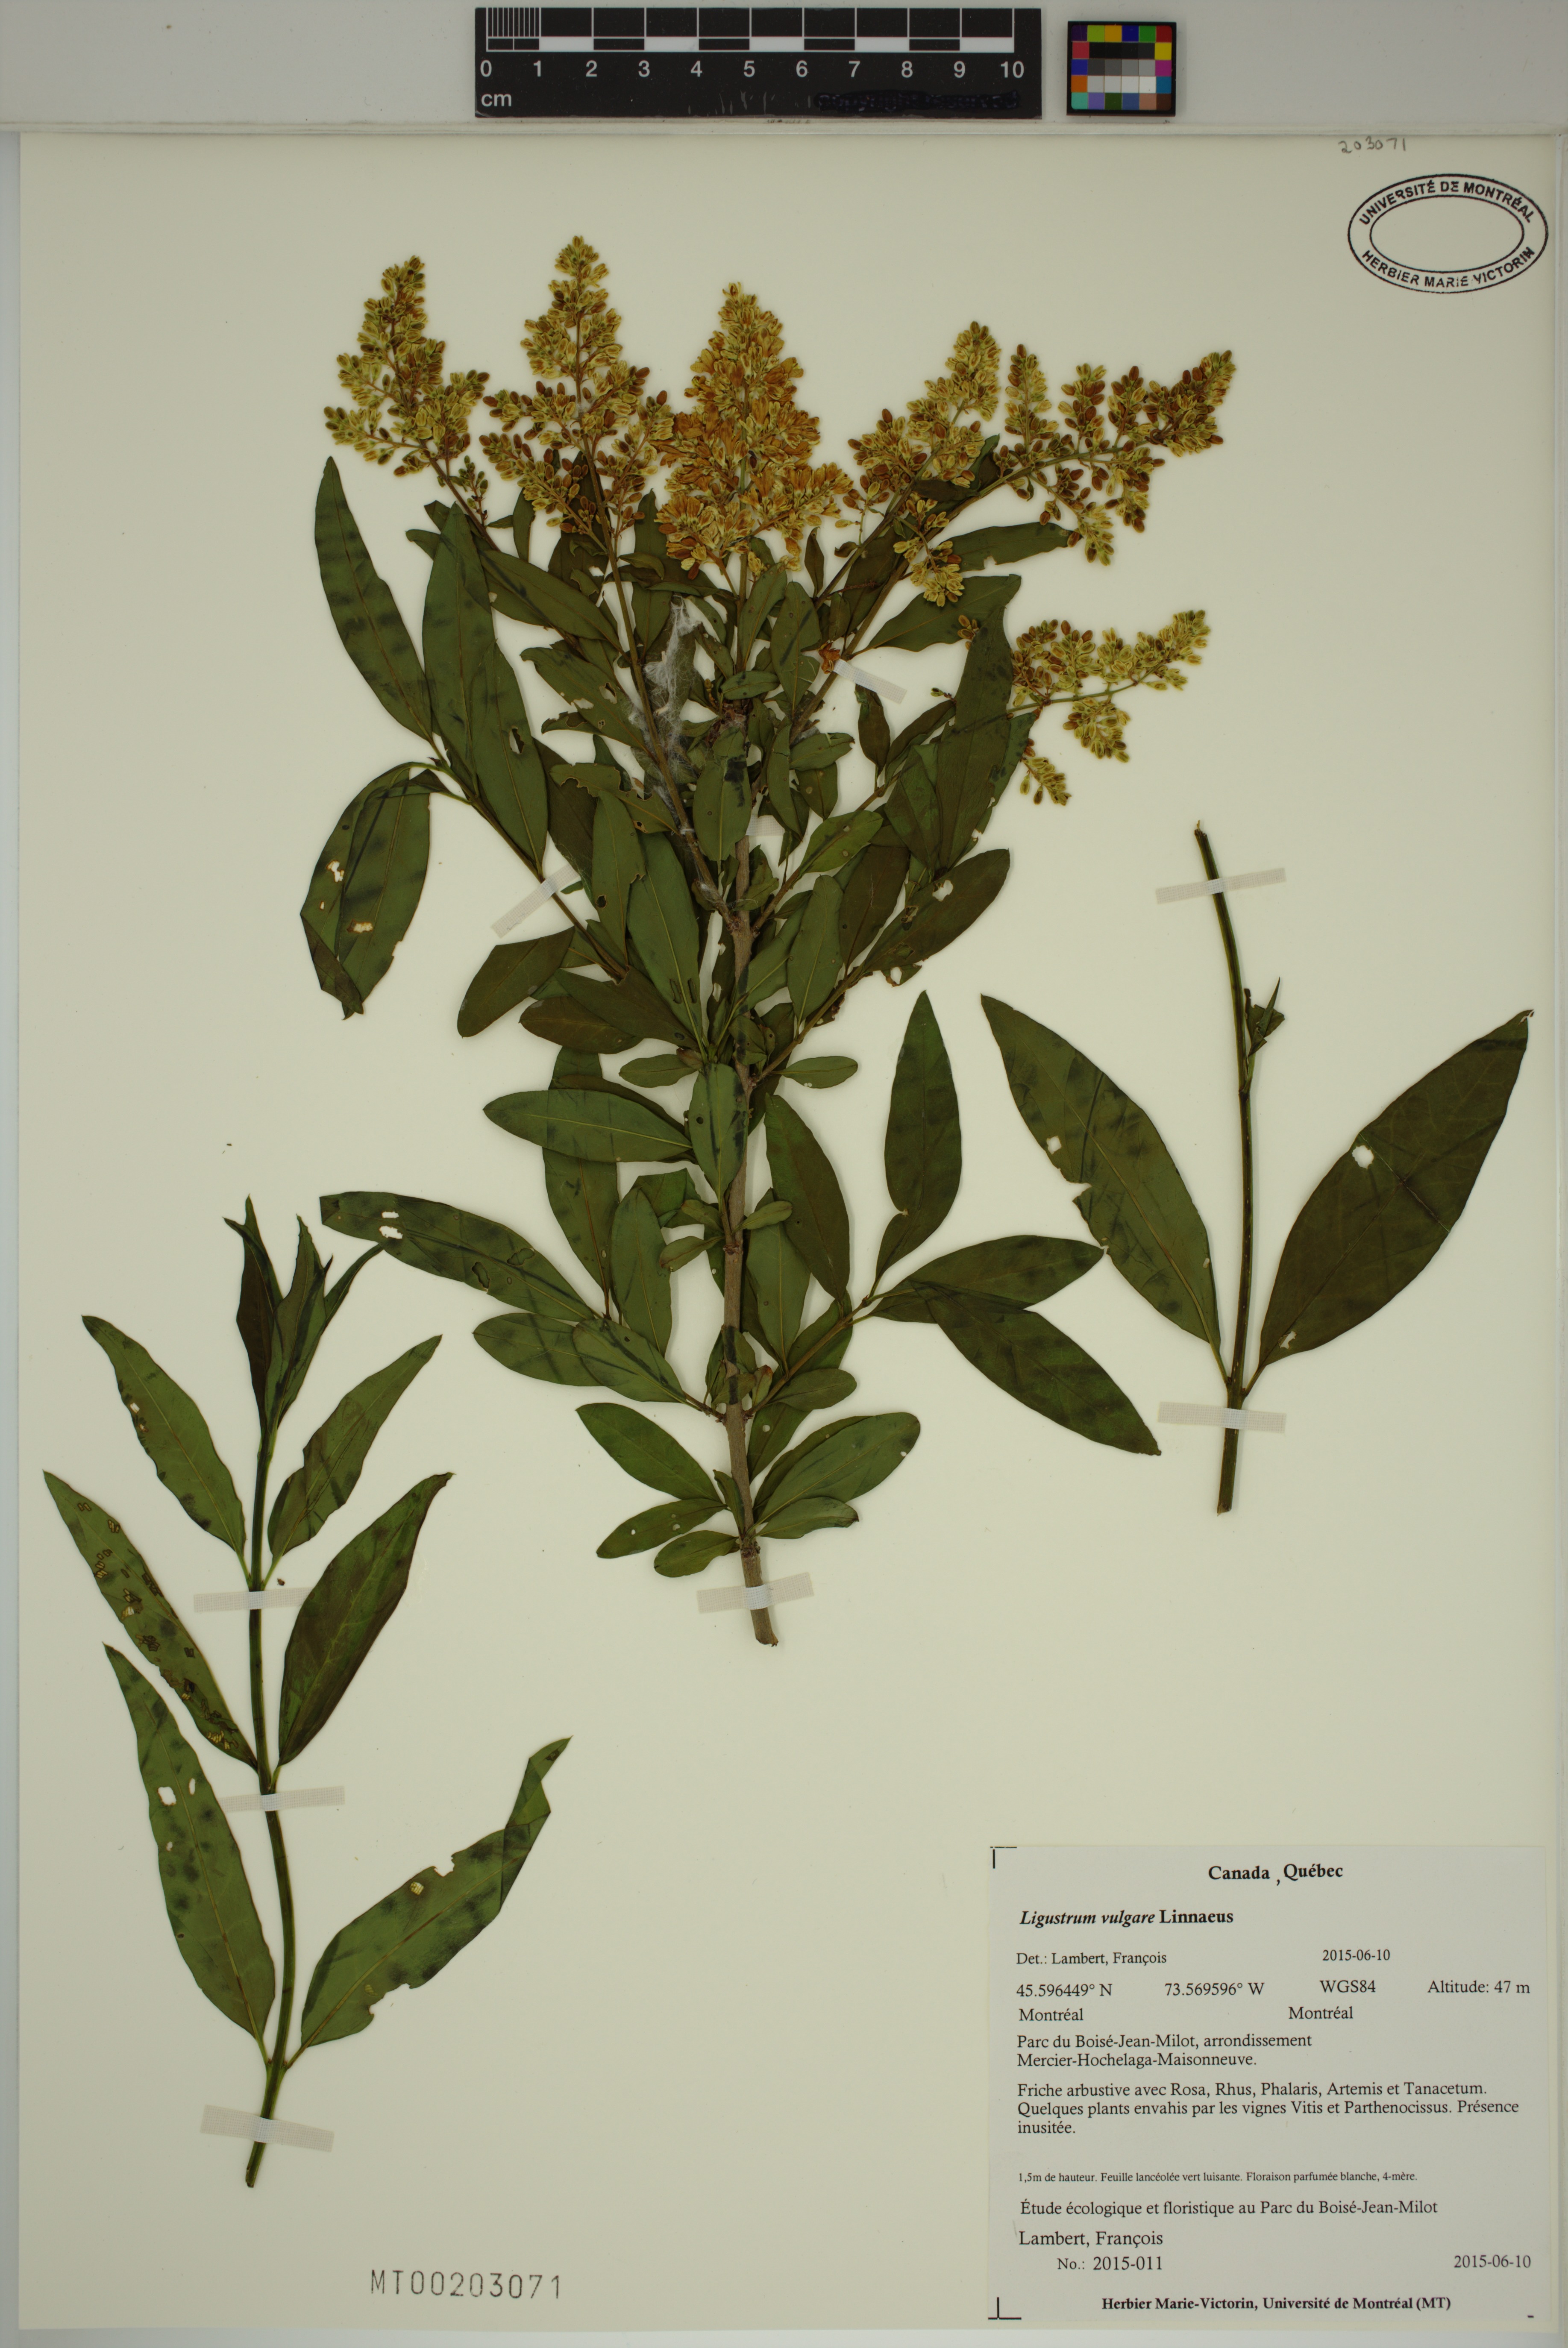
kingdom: Plantae
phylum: Tracheophyta
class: Magnoliopsida
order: Lamiales
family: Oleaceae
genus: Ligustrum
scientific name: Ligustrum vulgare
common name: Wild privet
